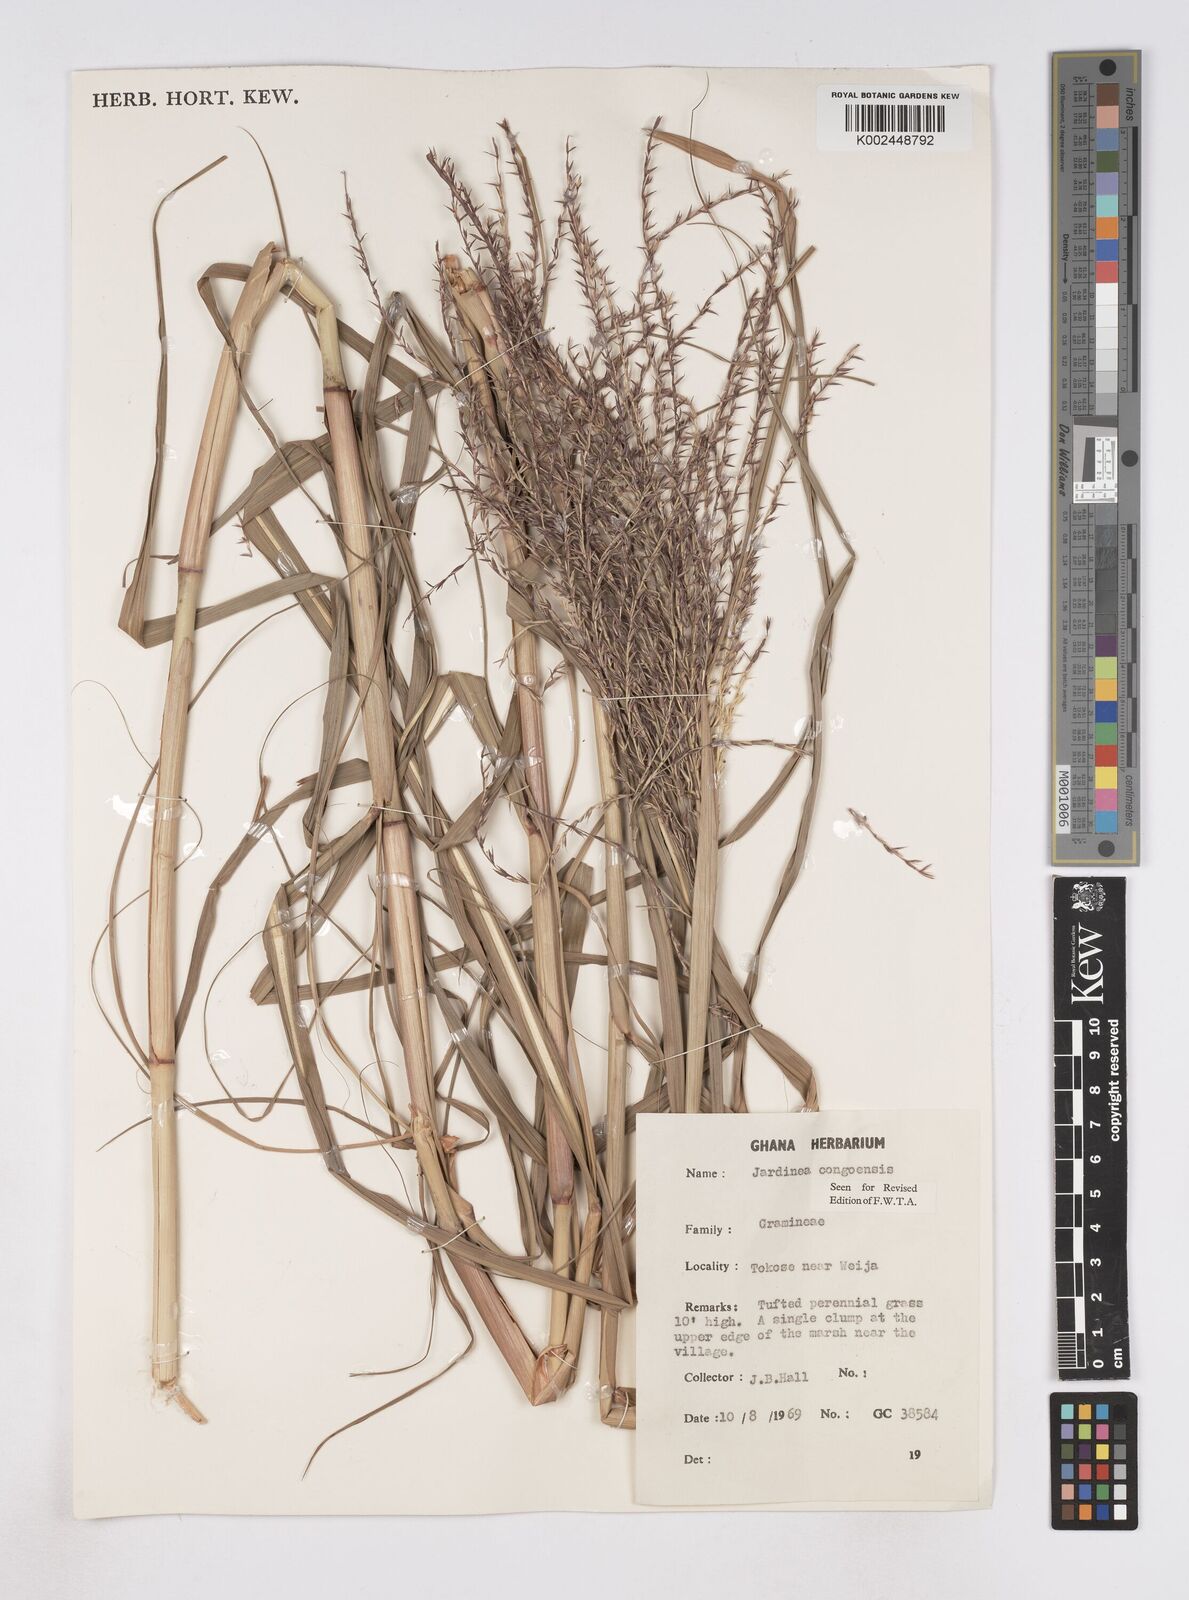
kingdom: Plantae
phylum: Tracheophyta
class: Liliopsida
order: Poales
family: Poaceae
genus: Phacelurus
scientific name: Phacelurus gabonensis
